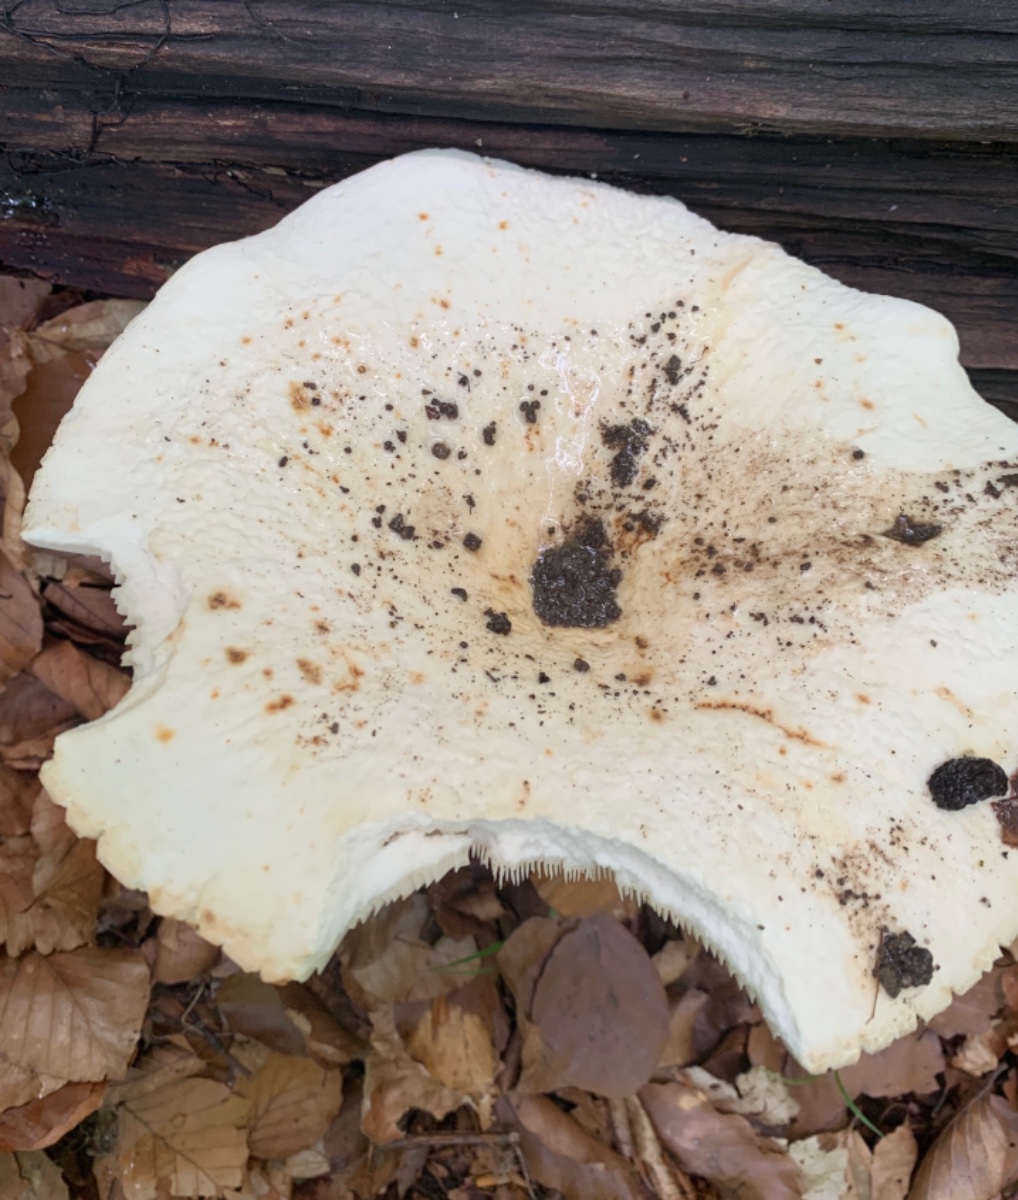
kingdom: Fungi
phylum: Basidiomycota
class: Agaricomycetes
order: Russulales
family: Russulaceae
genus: Lactifluus
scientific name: Lactifluus piperatus
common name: peber-mælkehat
